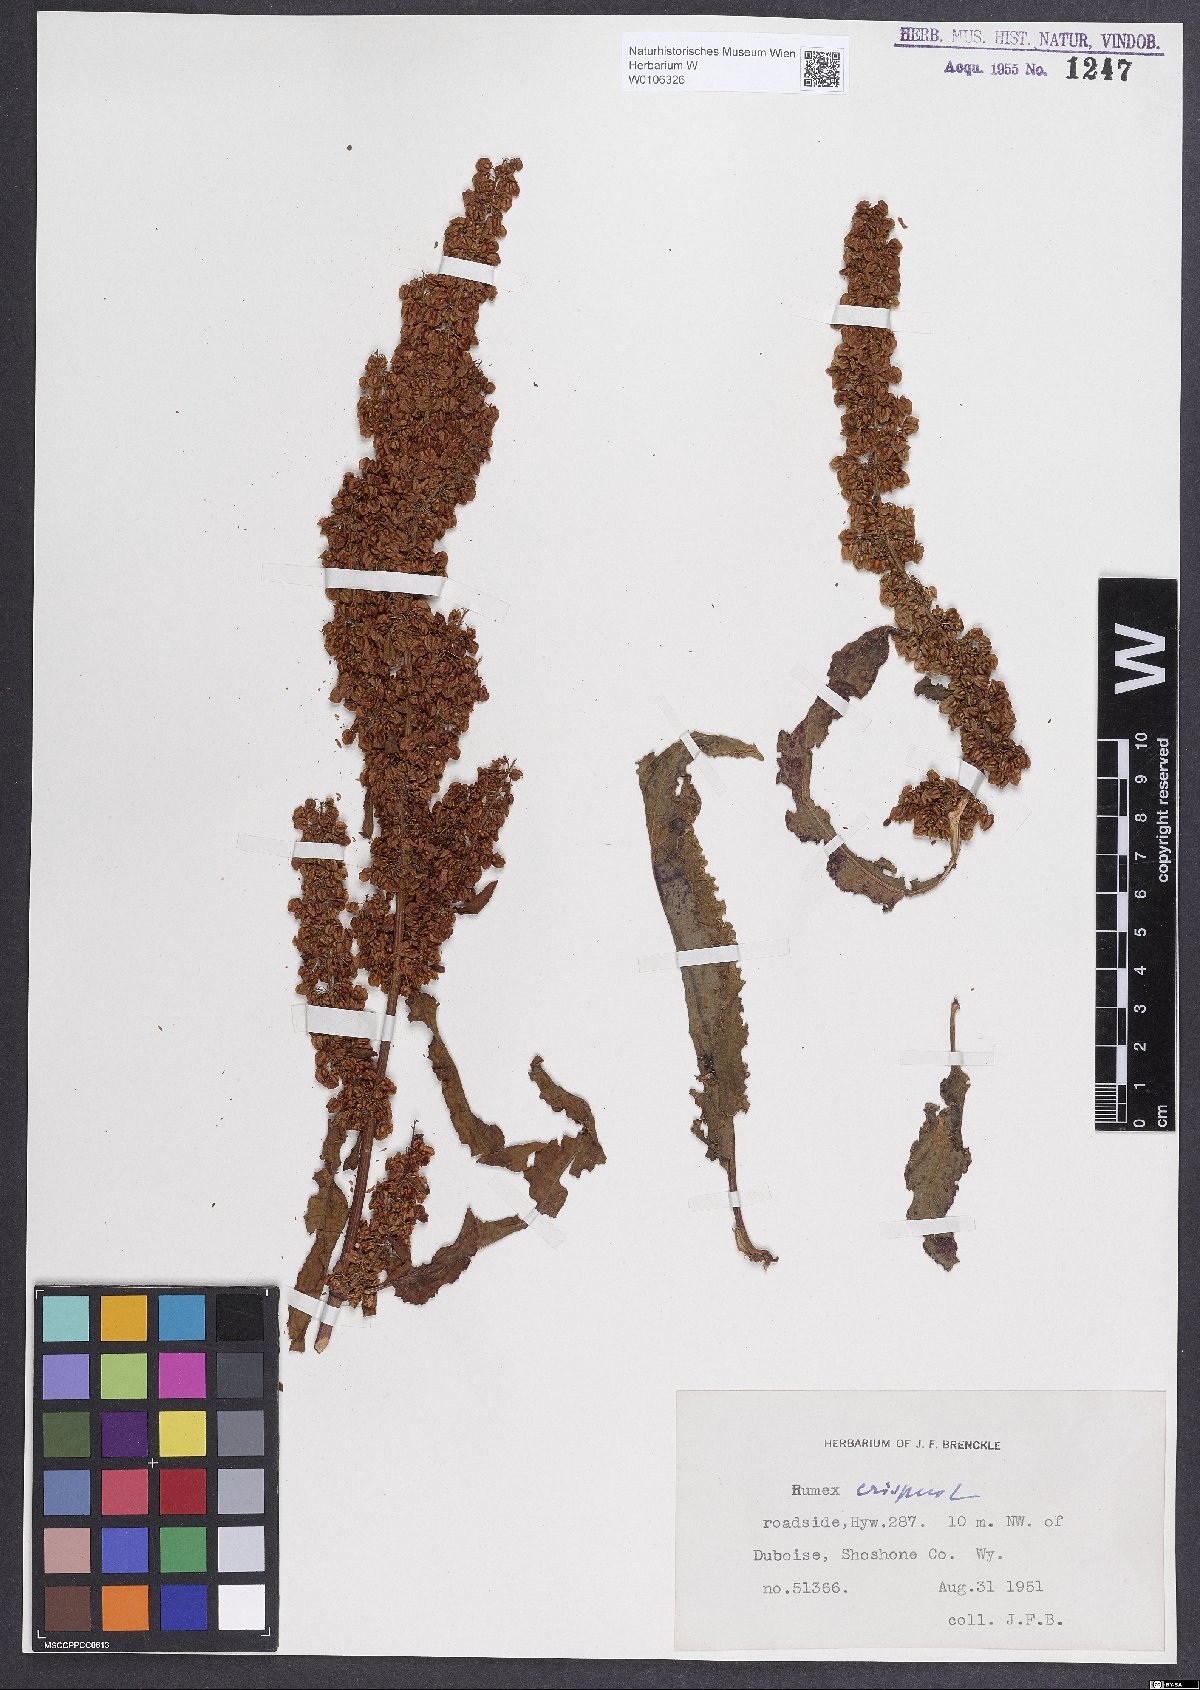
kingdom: Plantae
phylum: Tracheophyta
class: Magnoliopsida
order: Caryophyllales
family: Polygonaceae
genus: Rumex
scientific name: Rumex crispus
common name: Curled dock
